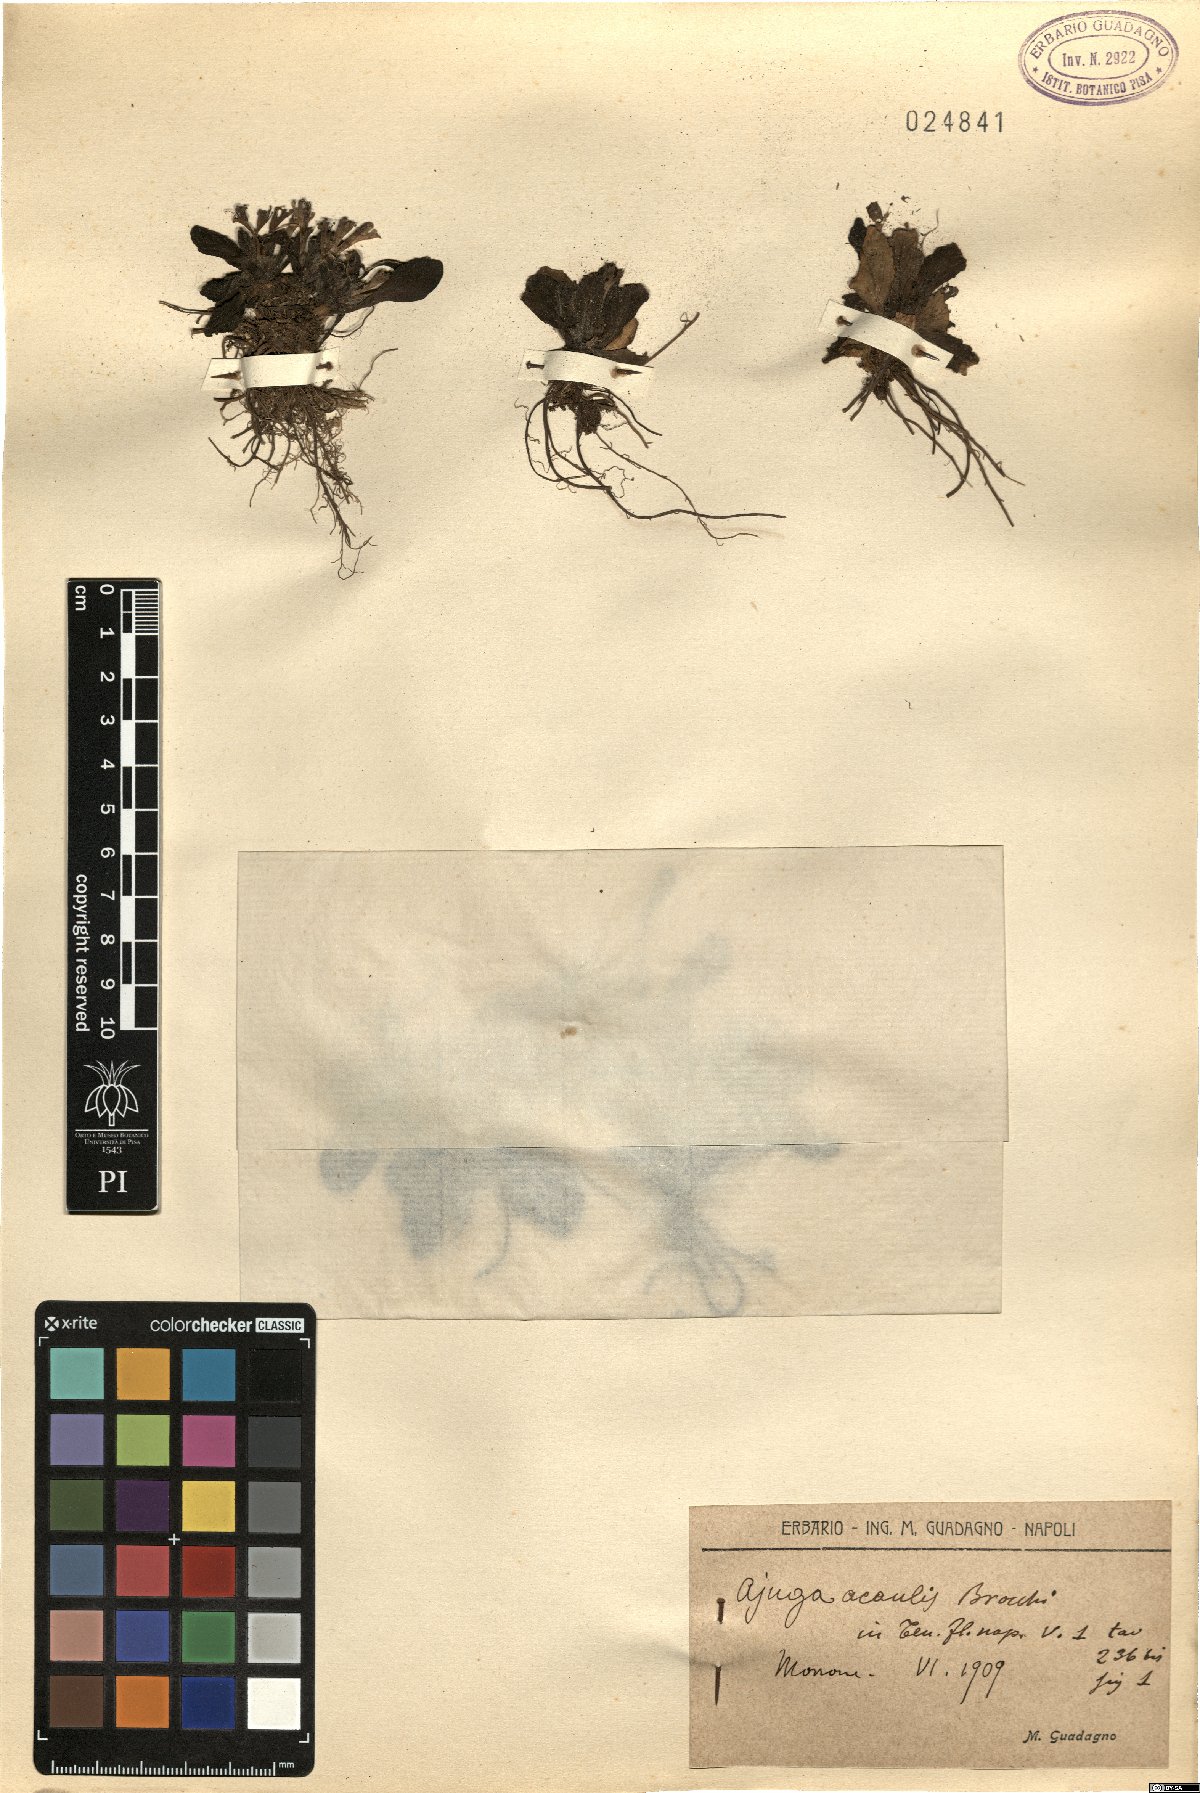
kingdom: Plantae
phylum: Tracheophyta
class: Magnoliopsida
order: Lamiales
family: Lamiaceae
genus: Ajuga
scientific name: Ajuga tenorei
